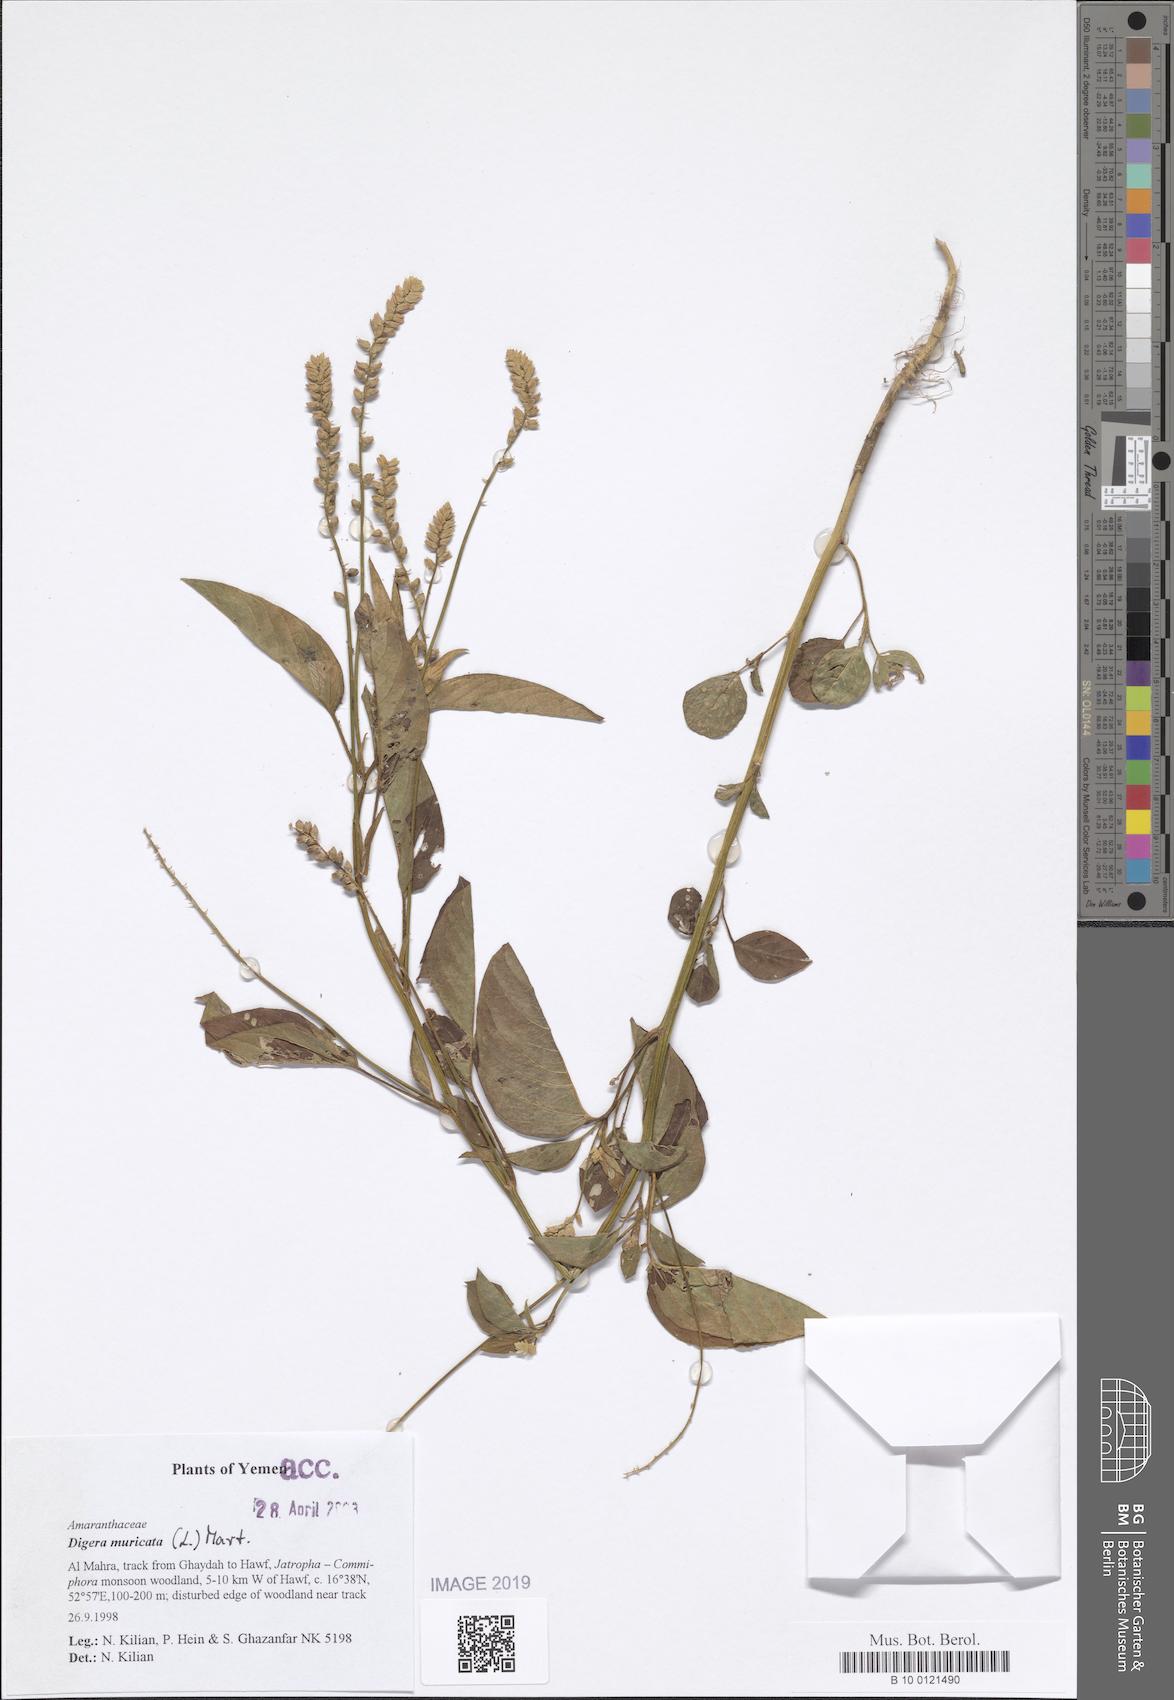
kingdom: Plantae
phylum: Tracheophyta
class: Magnoliopsida
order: Caryophyllales
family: Amaranthaceae
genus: Digera
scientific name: Digera muricata
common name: False amaranth
